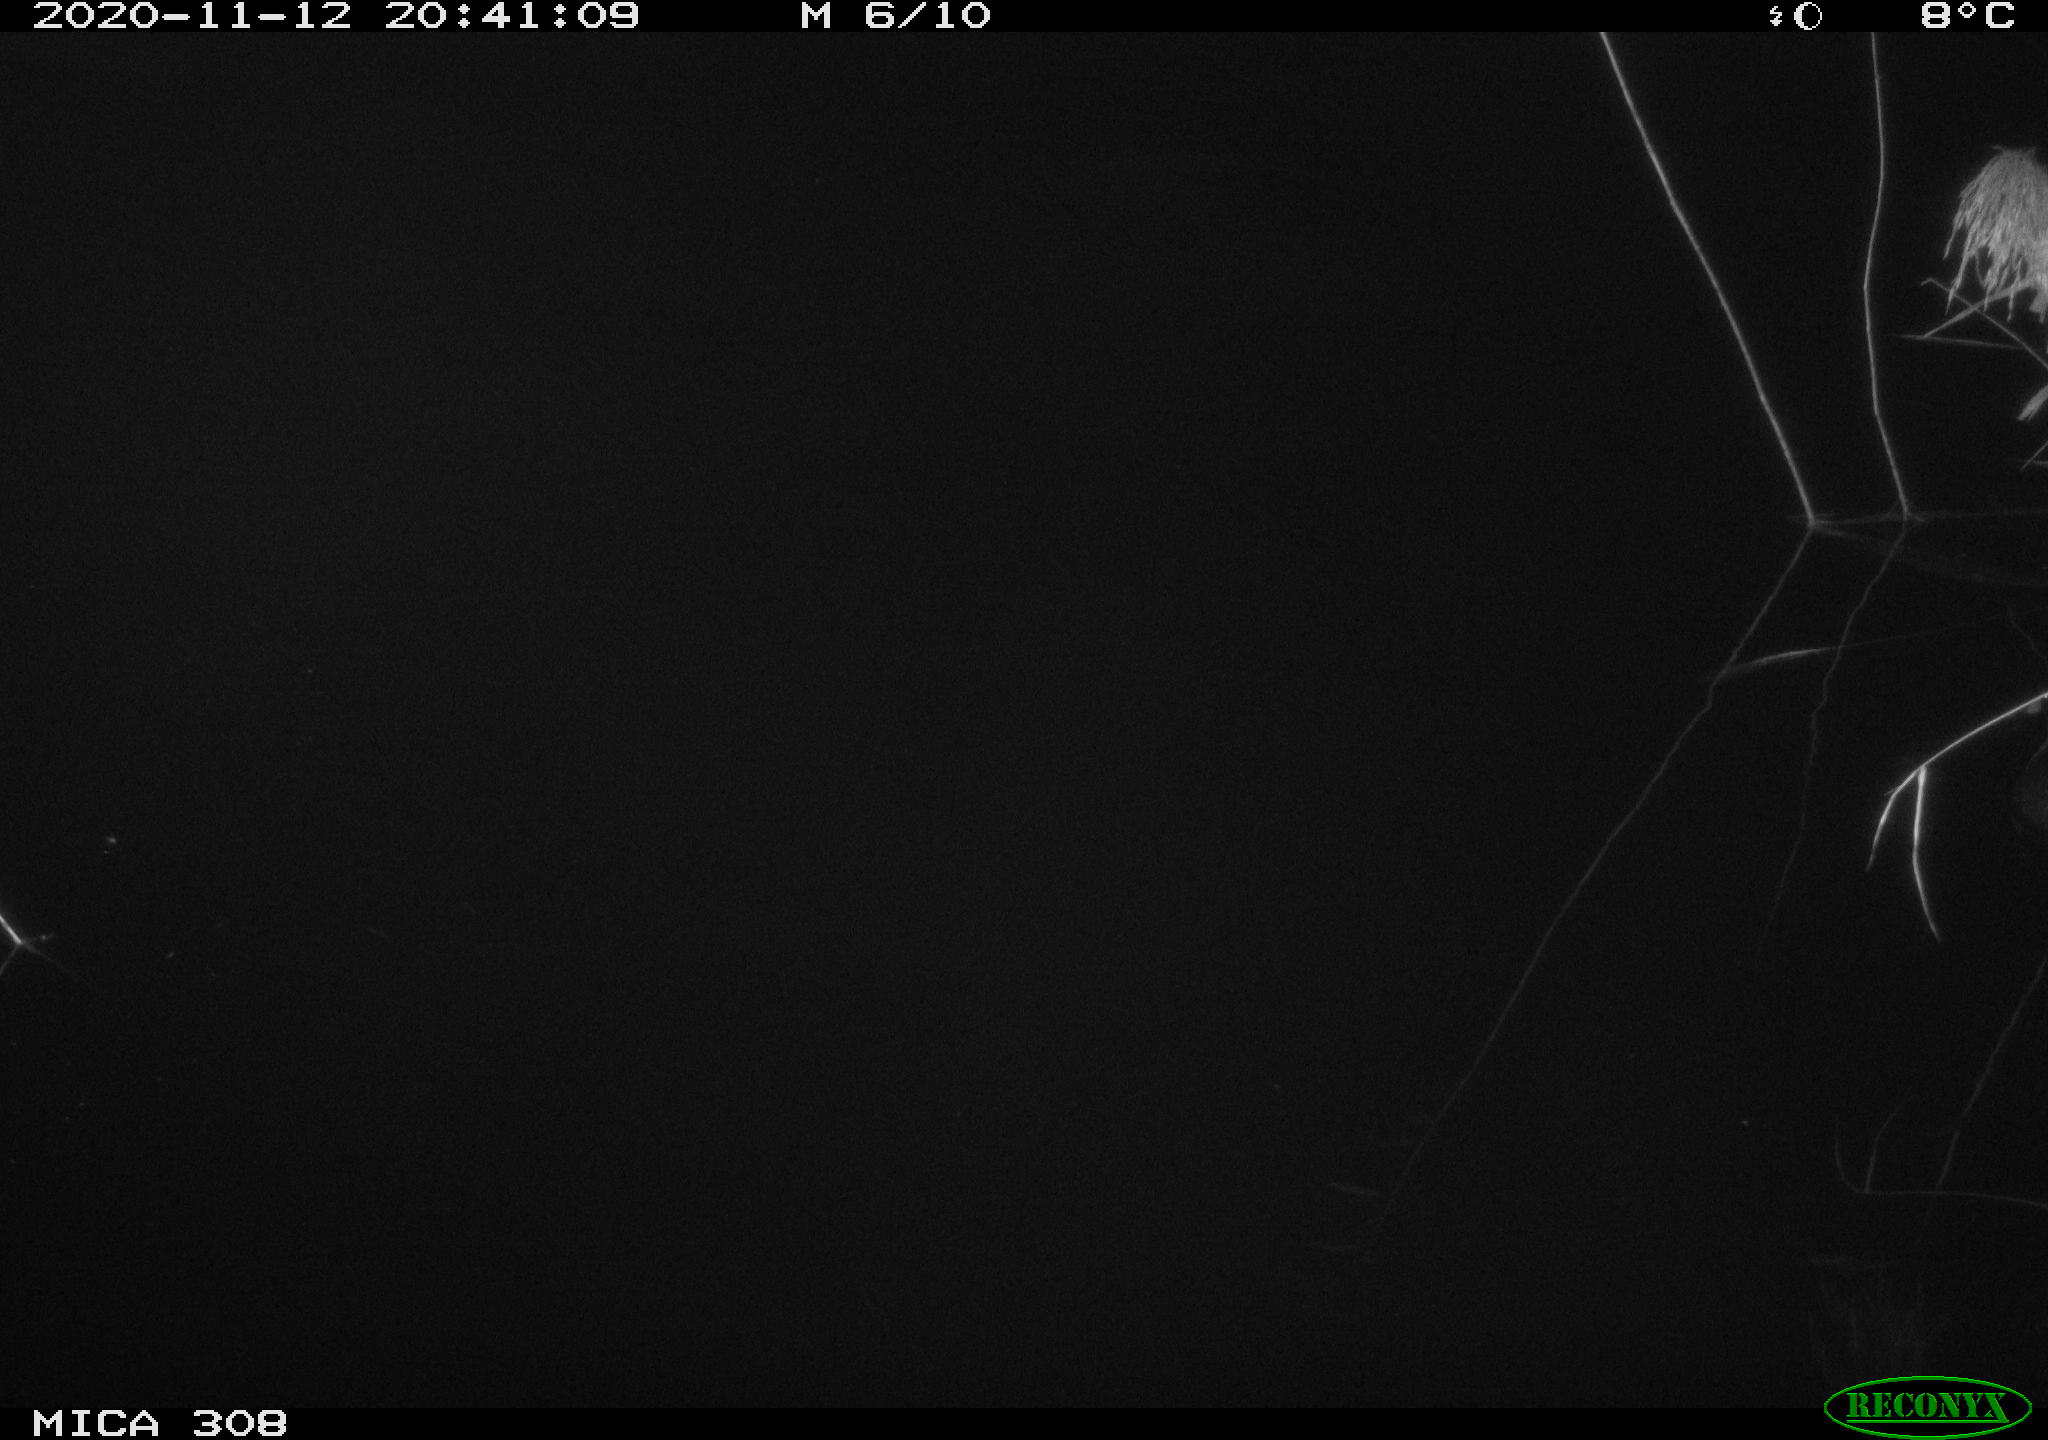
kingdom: Animalia
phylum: Chordata
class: Aves
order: Gruiformes
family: Rallidae
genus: Fulica
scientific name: Fulica atra
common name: Eurasian coot
